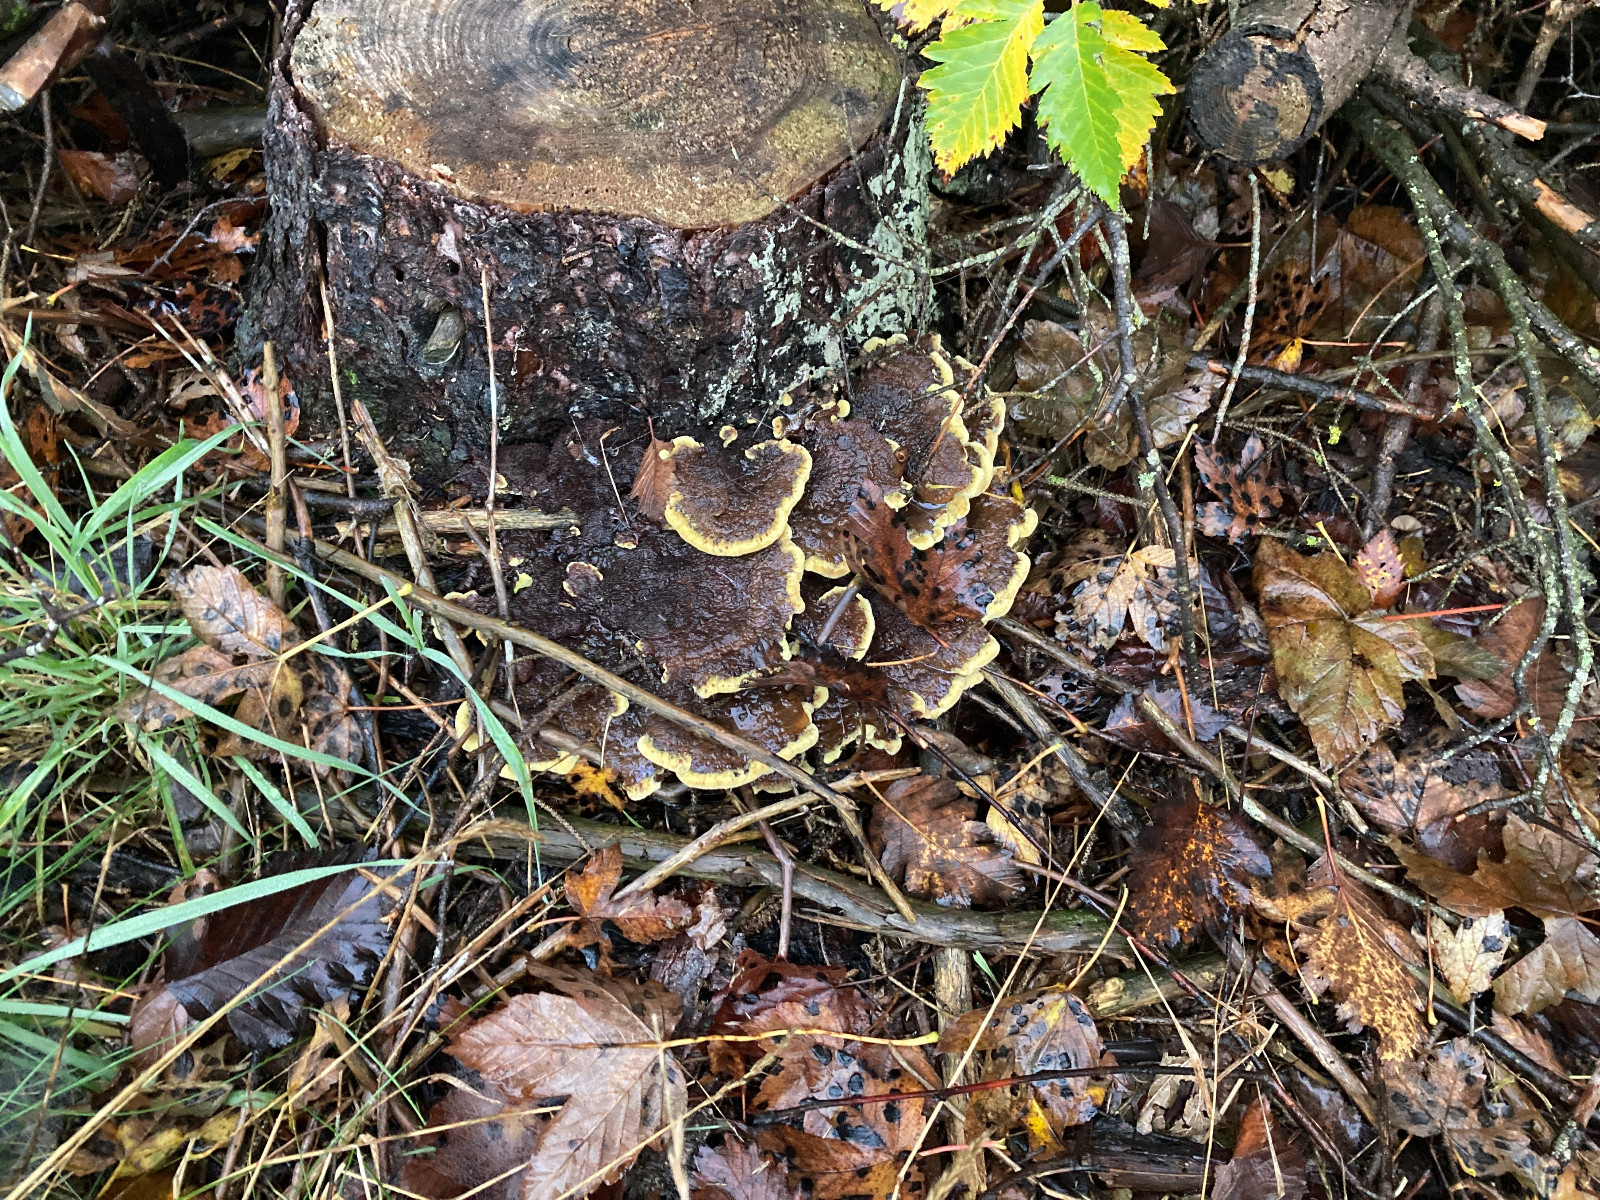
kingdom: Fungi
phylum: Basidiomycota
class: Agaricomycetes
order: Polyporales
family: Laetiporaceae
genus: Phaeolus
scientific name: Phaeolus schweinitzii
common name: brunporesvamp
